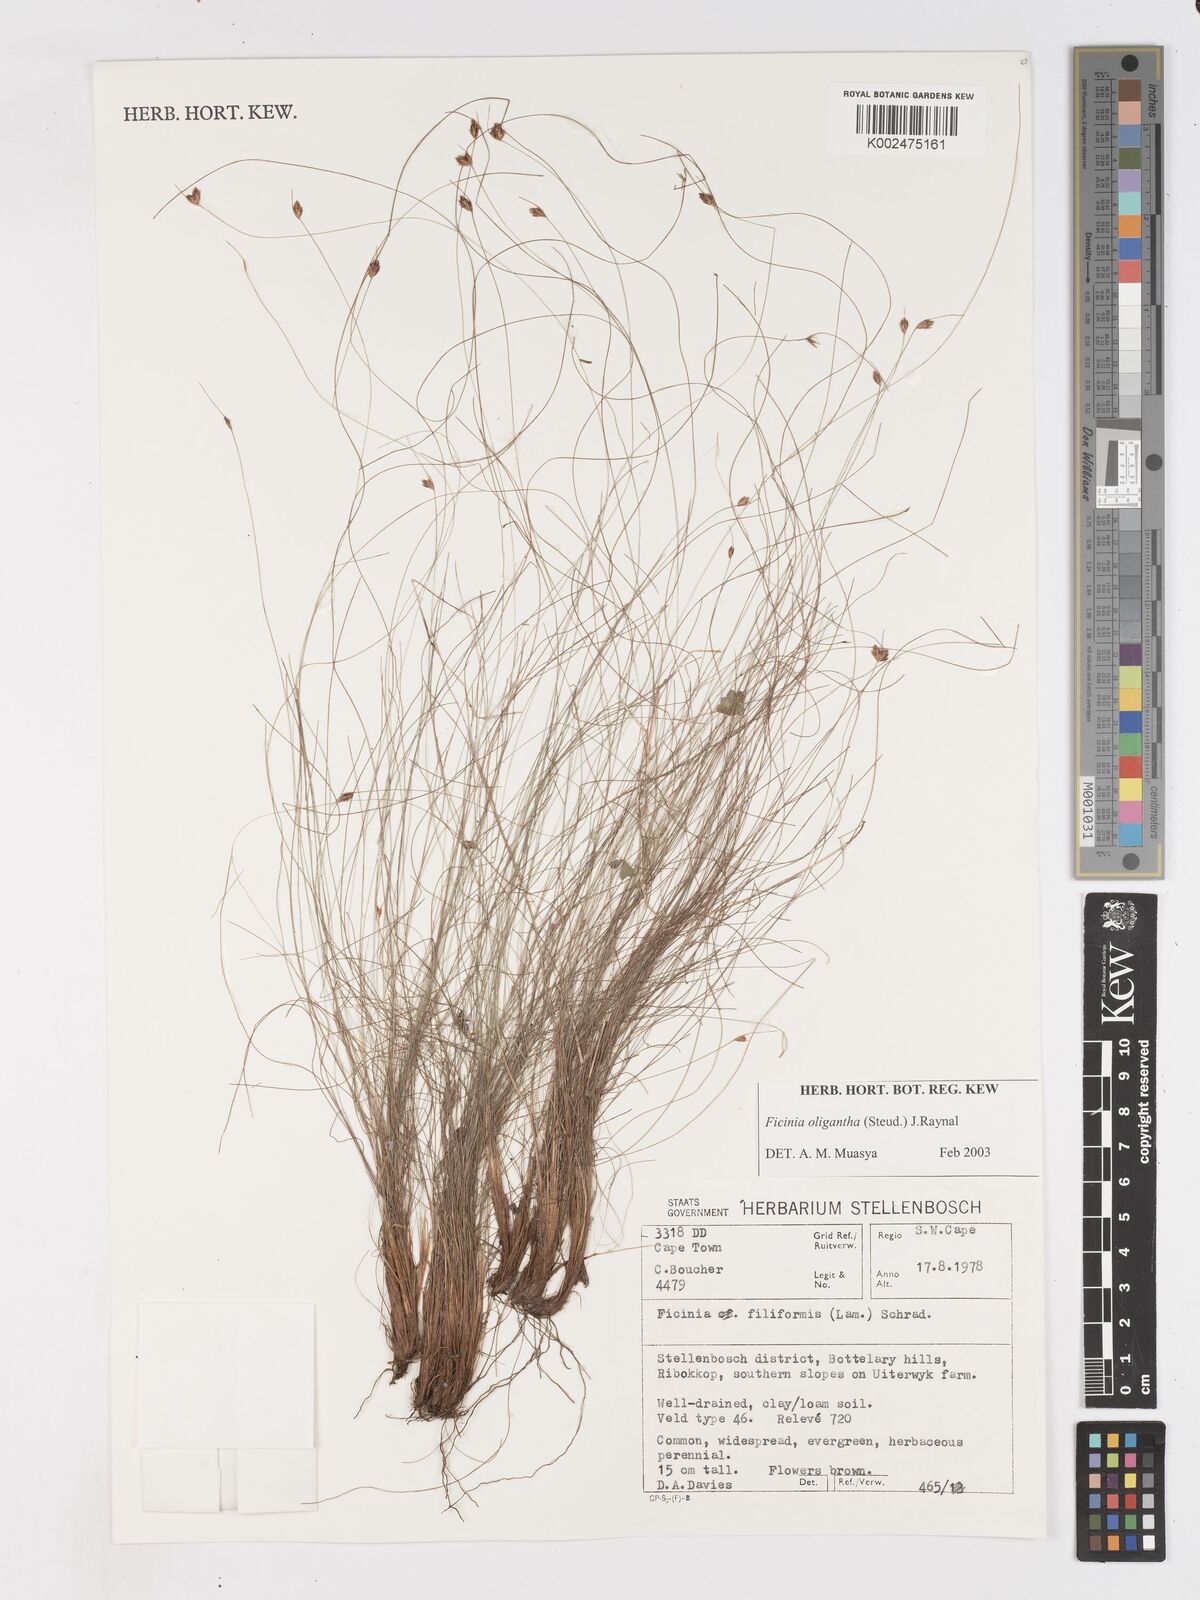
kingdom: Plantae
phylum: Tracheophyta
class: Liliopsida
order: Poales
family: Cyperaceae
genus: Ficinia
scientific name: Ficinia stolonifera
